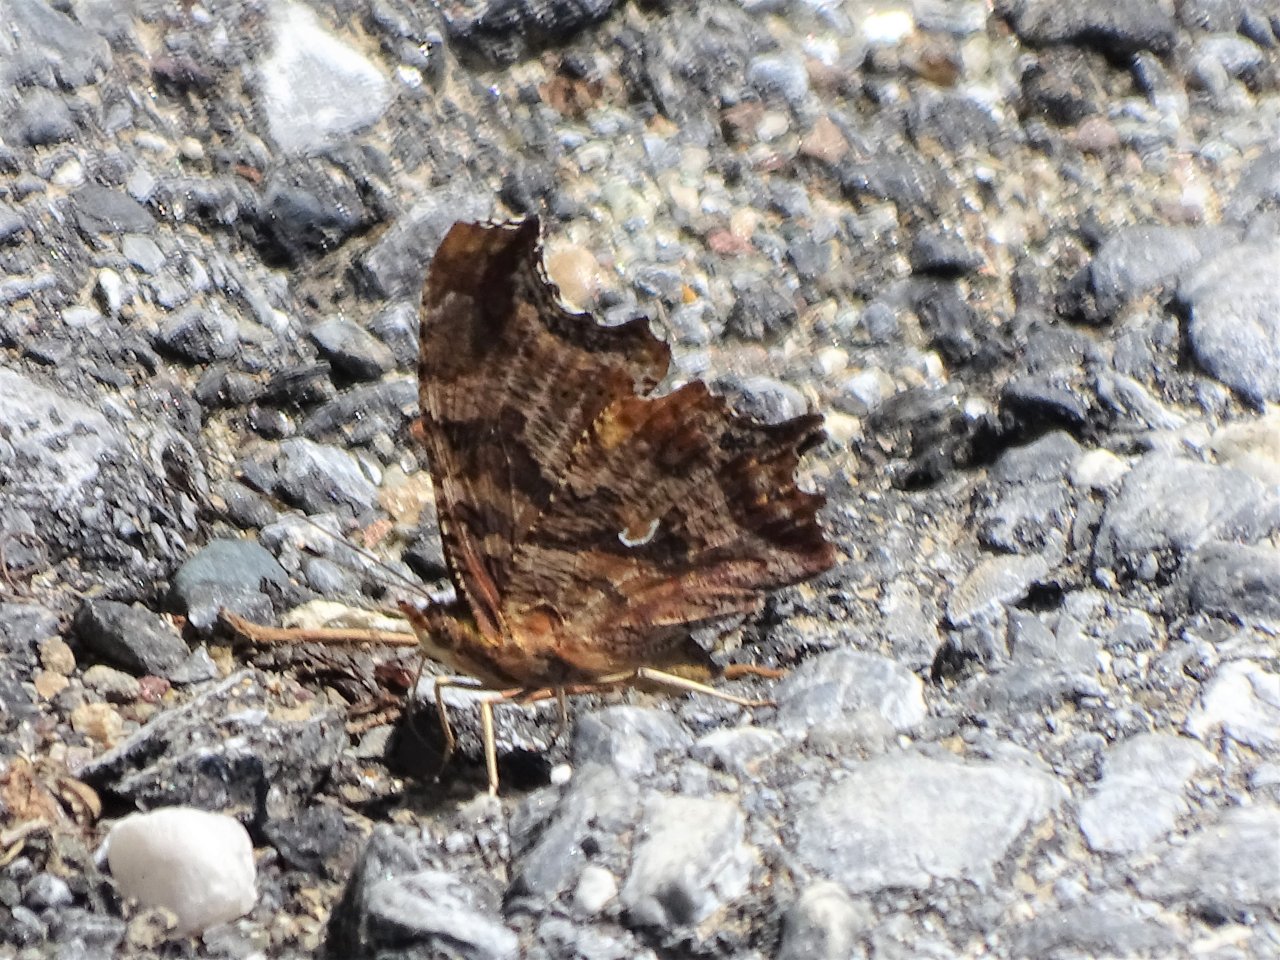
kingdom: Animalia
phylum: Arthropoda
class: Insecta
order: Lepidoptera
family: Nymphalidae
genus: Polygonia
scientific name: Polygonia comma
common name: Eastern Comma
